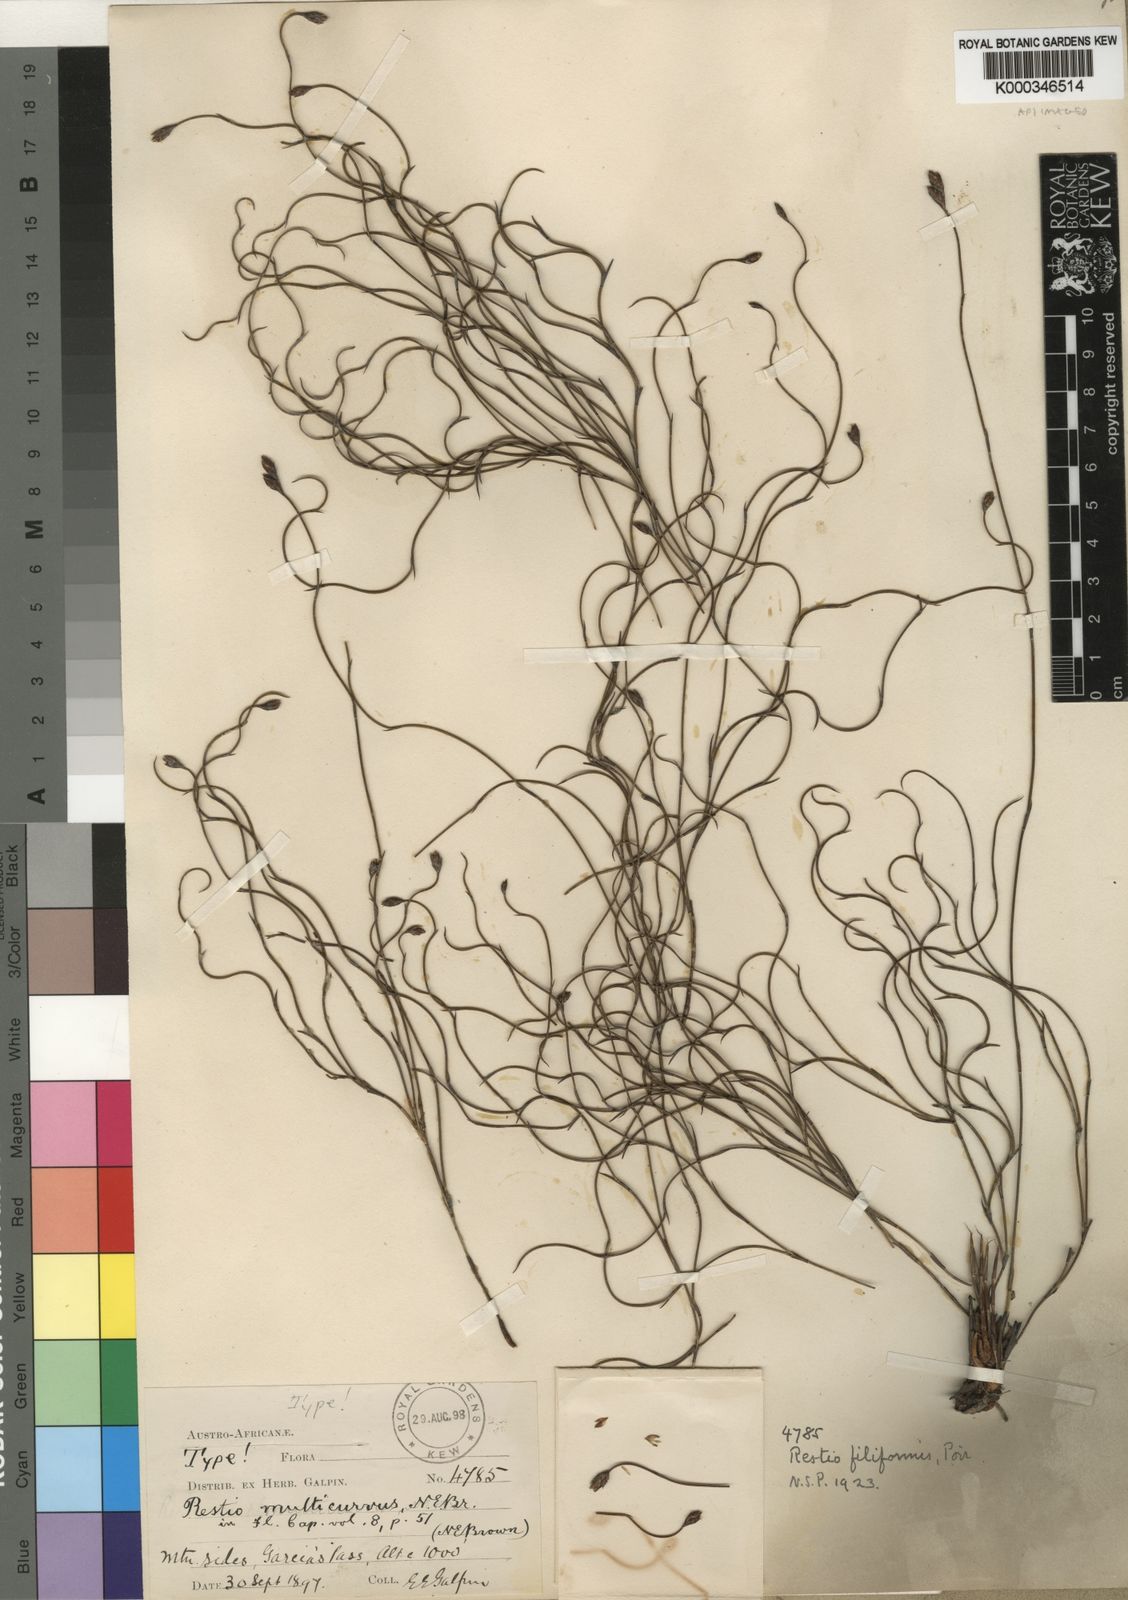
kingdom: Plantae
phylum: Tracheophyta
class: Liliopsida
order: Poales
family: Restionaceae
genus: Restio
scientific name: Restio filiformis
